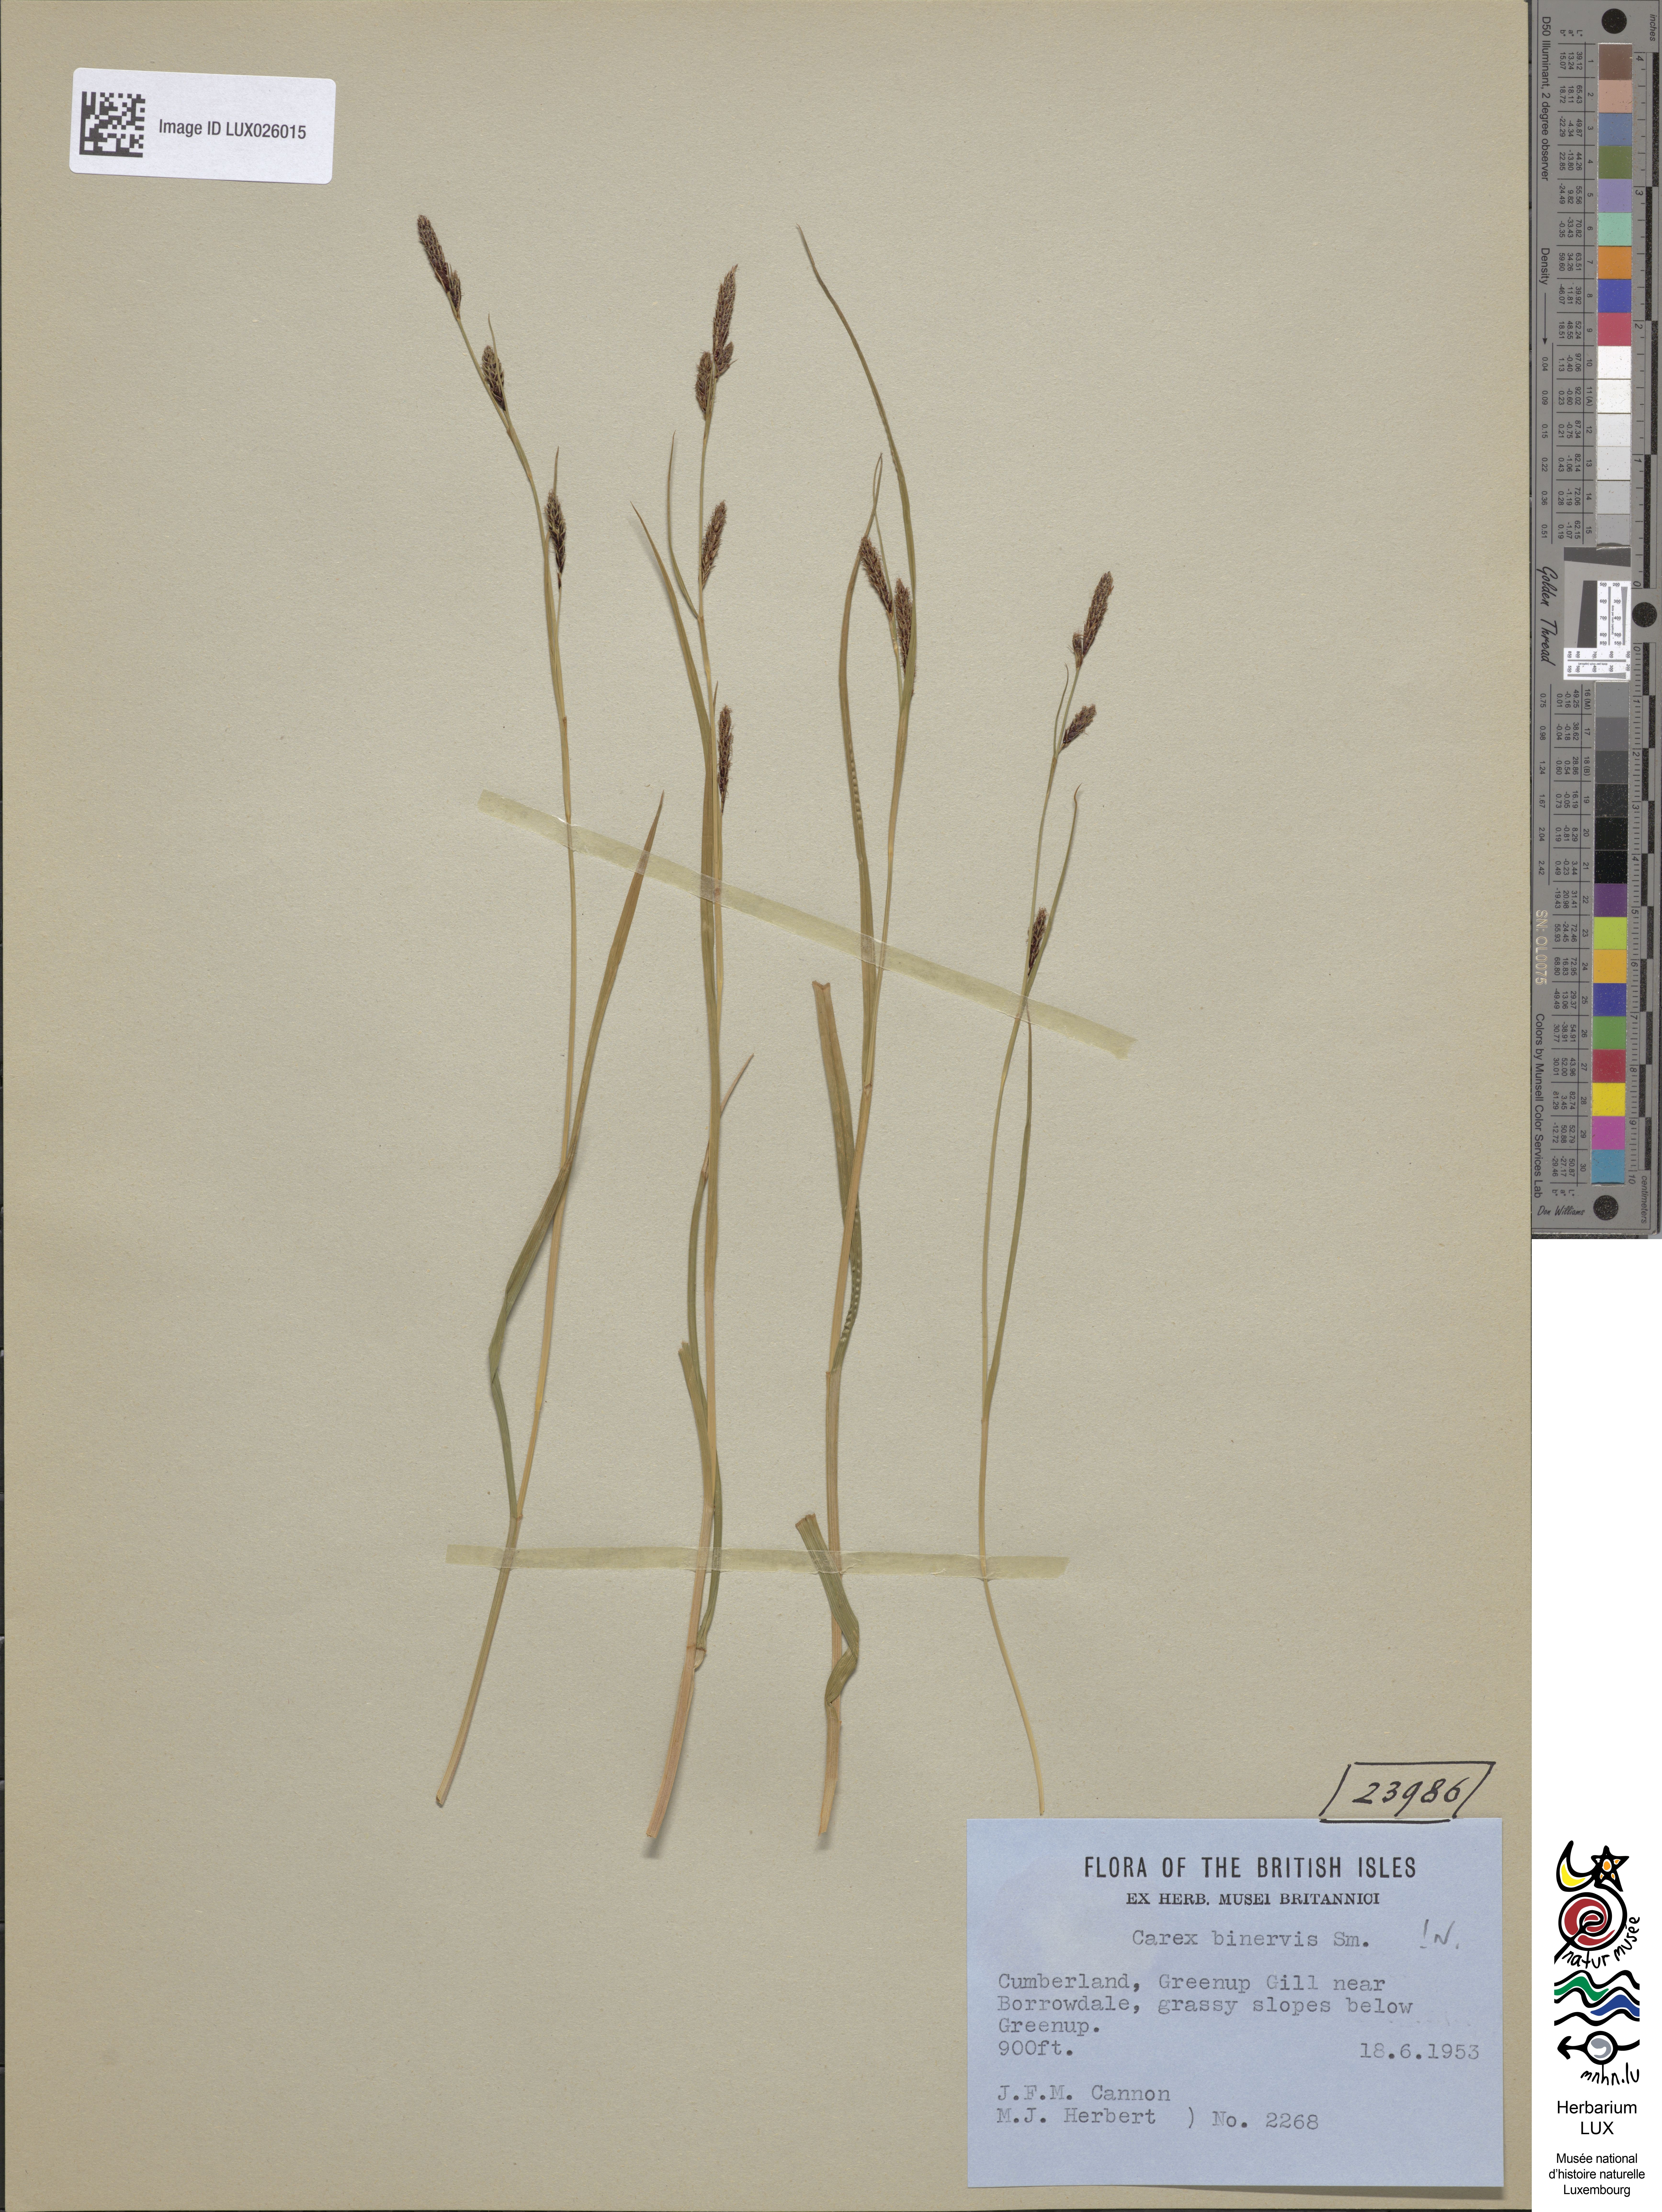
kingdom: Plantae
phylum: Tracheophyta
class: Liliopsida
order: Poales
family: Cyperaceae
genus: Carex
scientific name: Carex binervis
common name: Green-ribbed sedge
